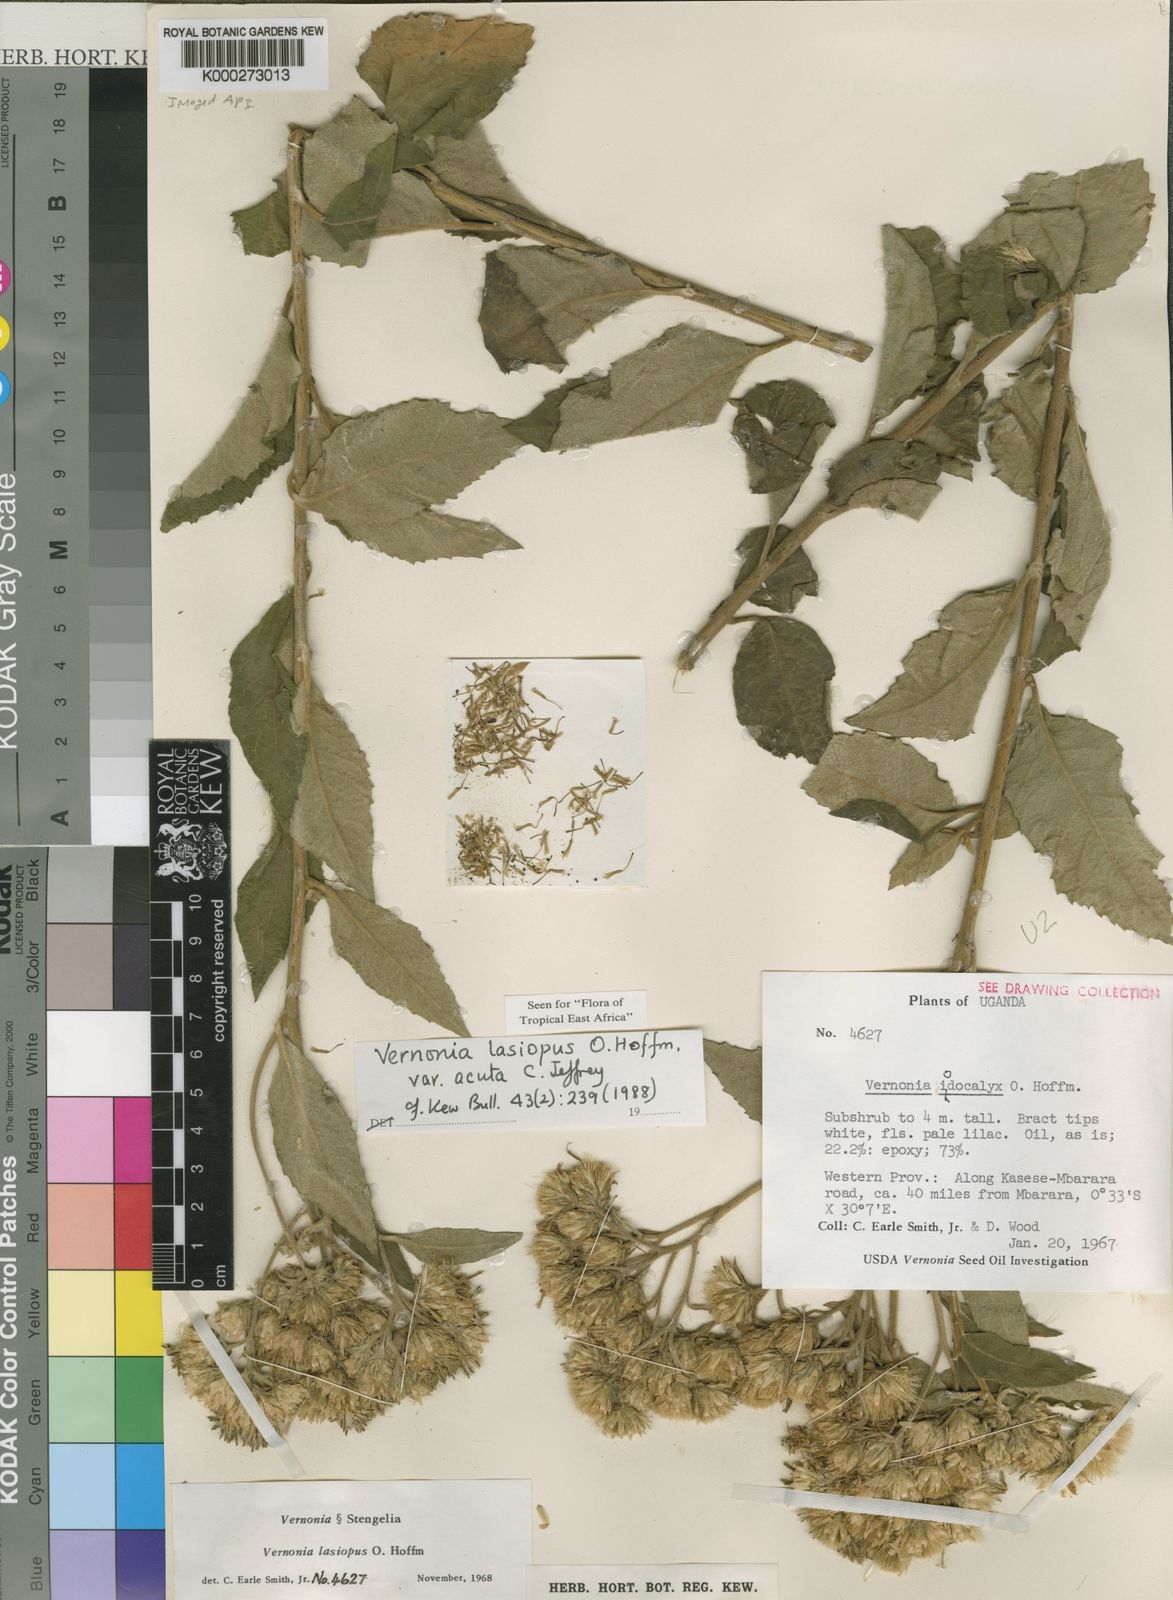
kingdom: Plantae
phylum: Tracheophyta
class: Magnoliopsida
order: Asterales
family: Asteraceae
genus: Baccharoides
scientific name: Baccharoides lasiopus
